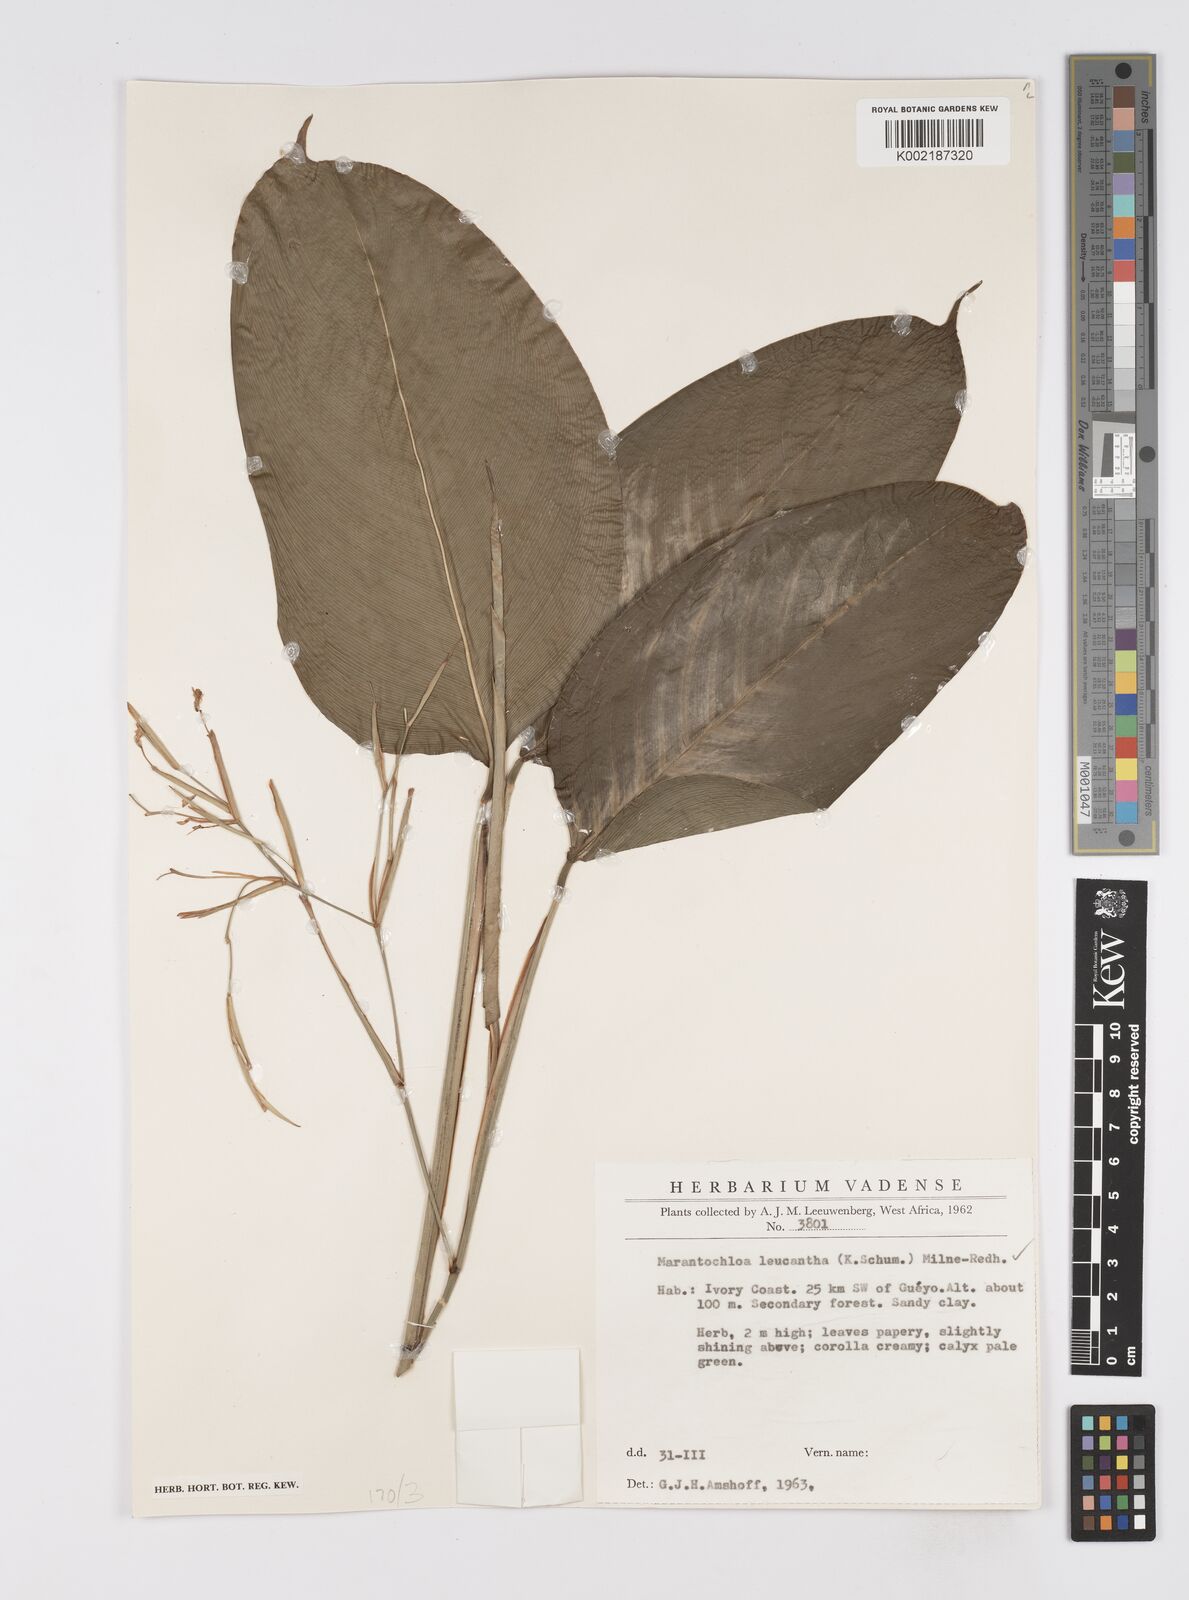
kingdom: Plantae
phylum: Tracheophyta
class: Liliopsida
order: Zingiberales
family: Marantaceae
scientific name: Marantaceae
